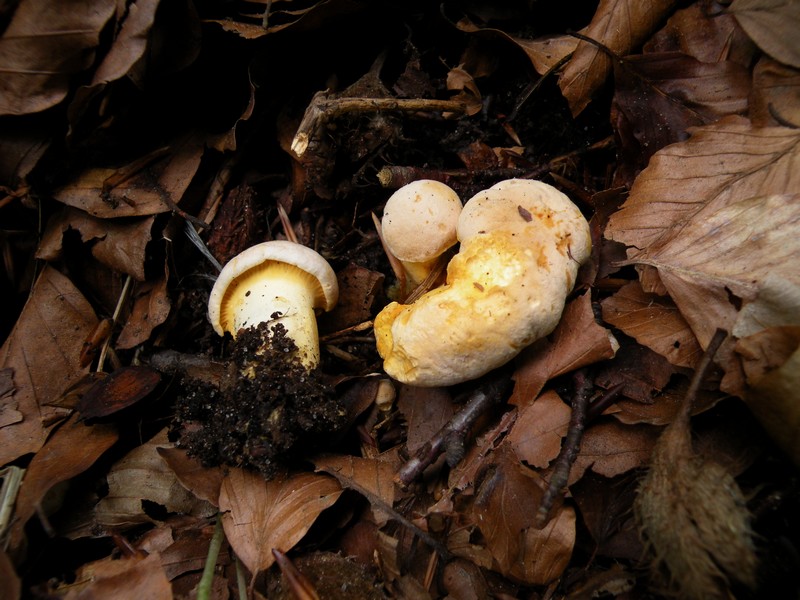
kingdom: Fungi
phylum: Basidiomycota
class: Agaricomycetes
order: Cantharellales
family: Hydnaceae
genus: Cantharellus
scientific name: Cantharellus pallens
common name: bleg kantarel
